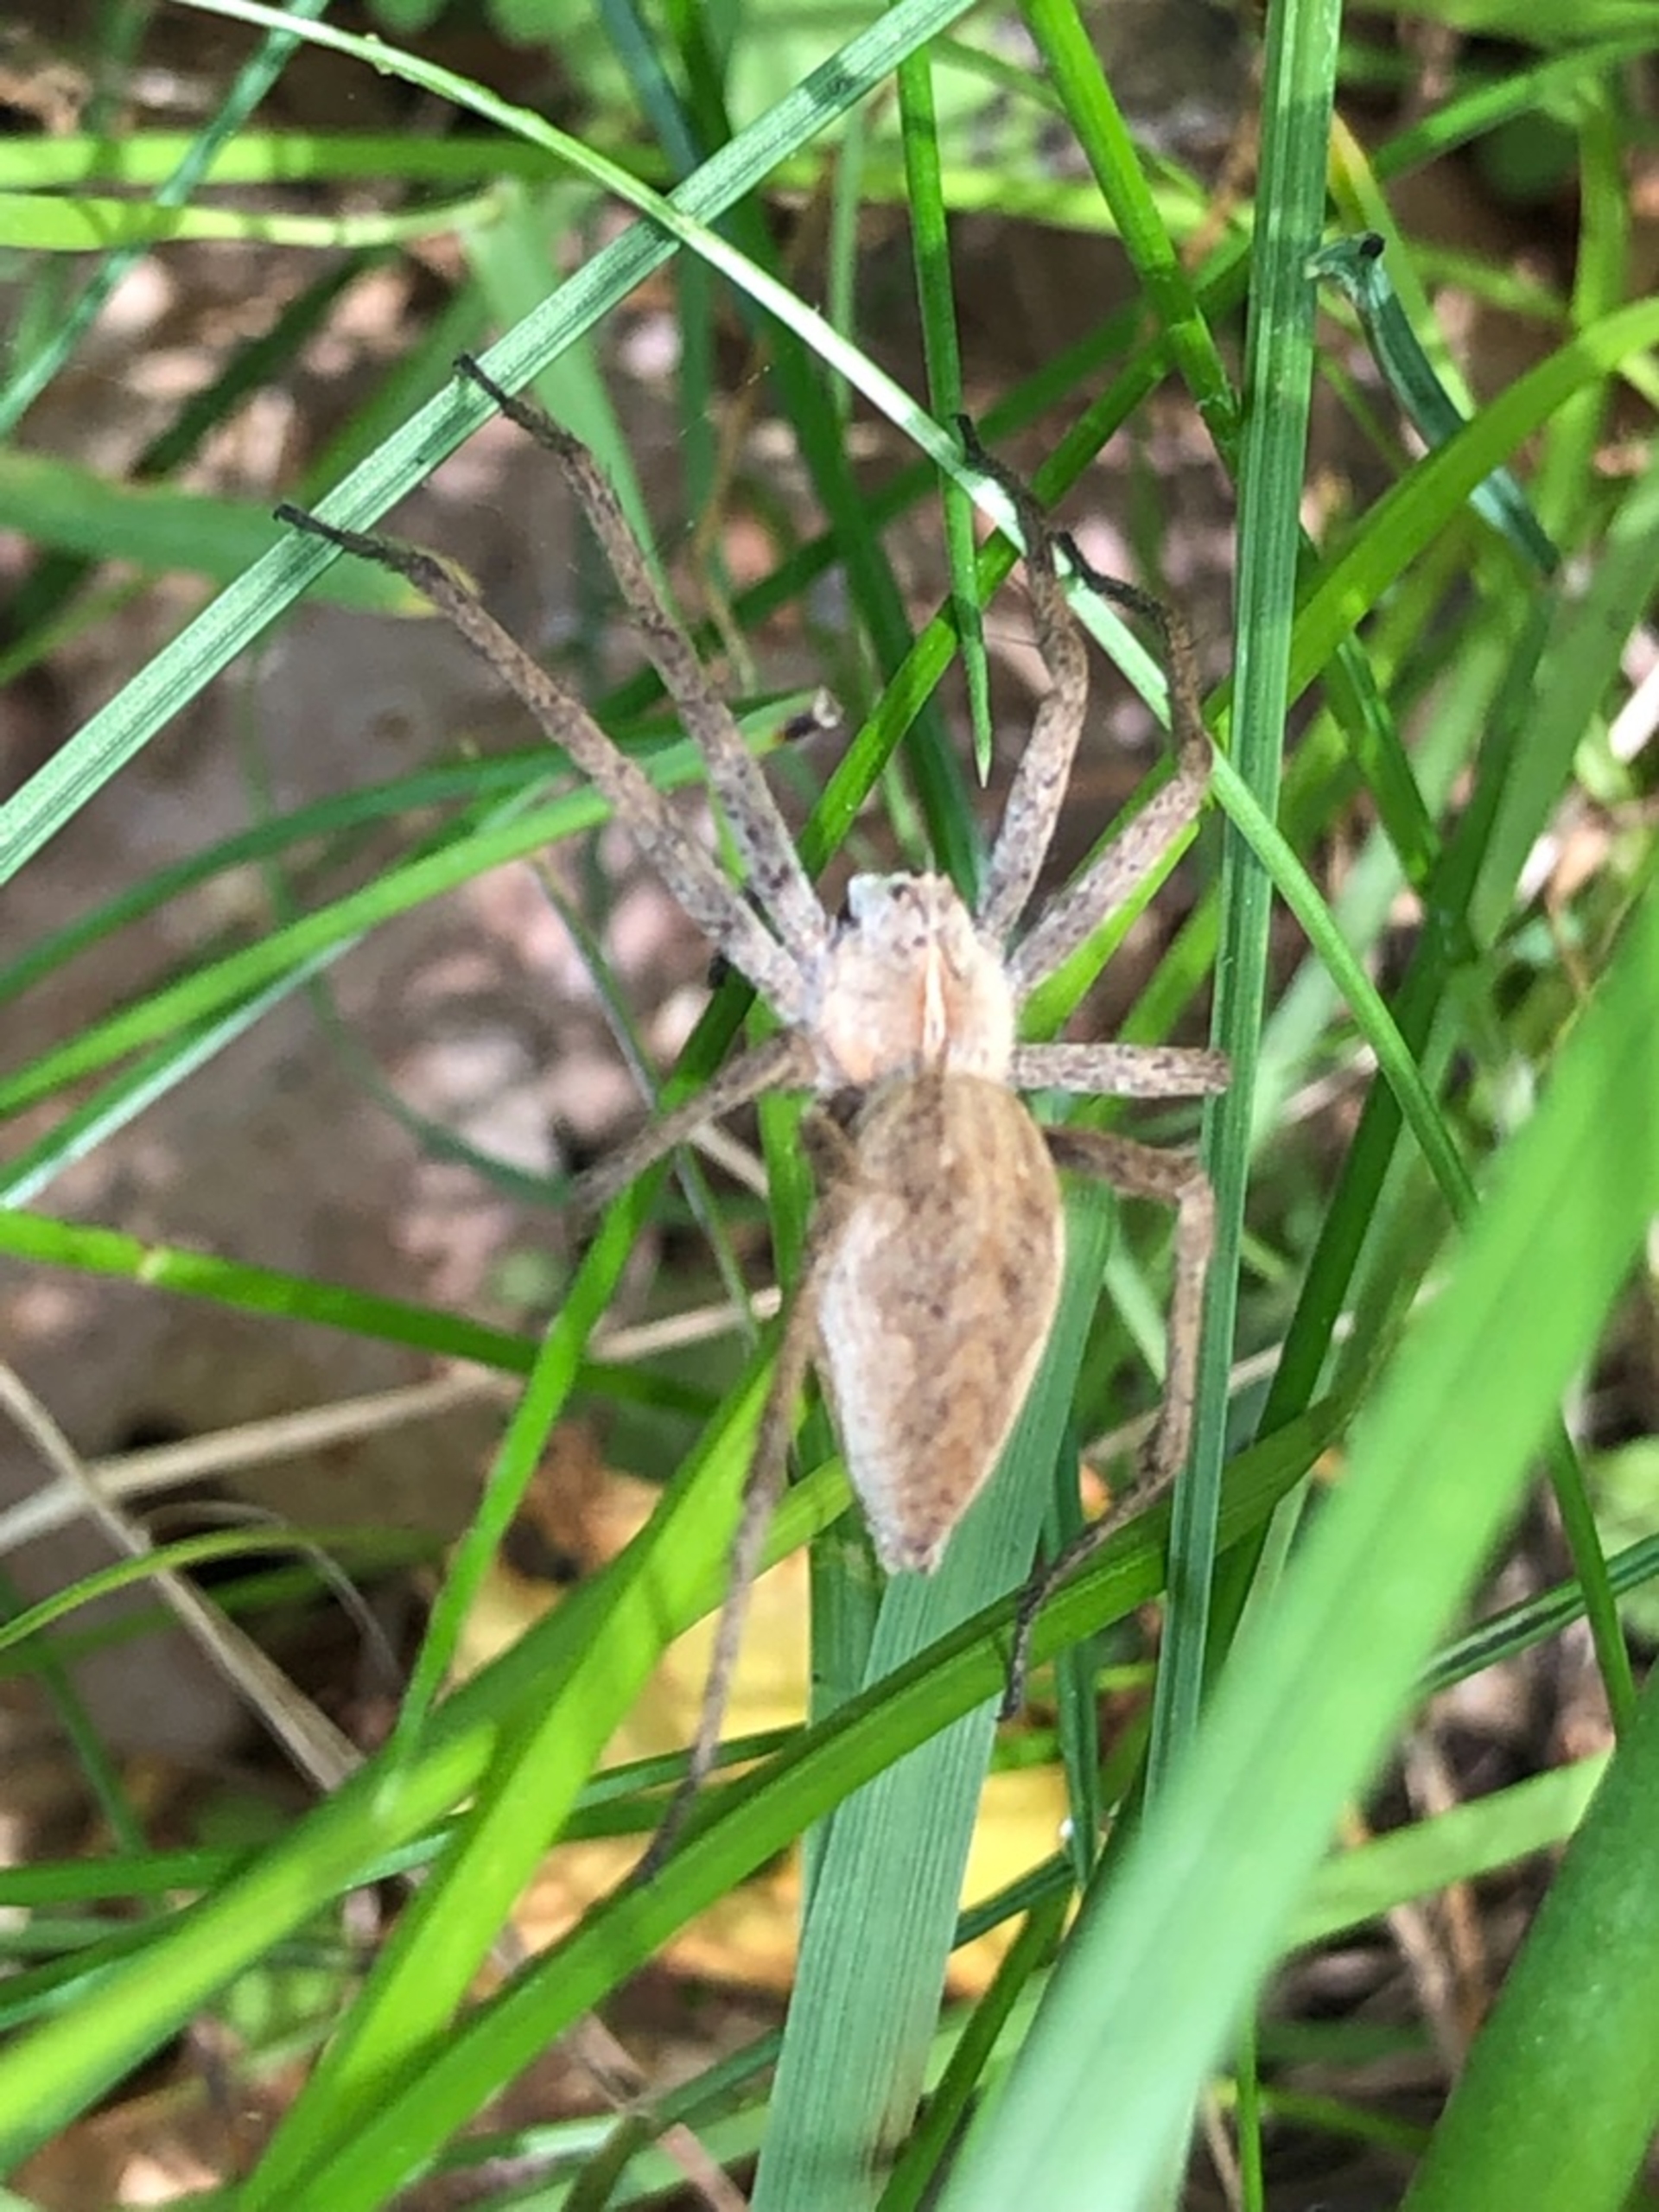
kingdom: Animalia
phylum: Arthropoda
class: Arachnida
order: Araneae
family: Pisauridae
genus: Pisaura
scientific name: Pisaura mirabilis
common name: Almindelig rovedderkop
